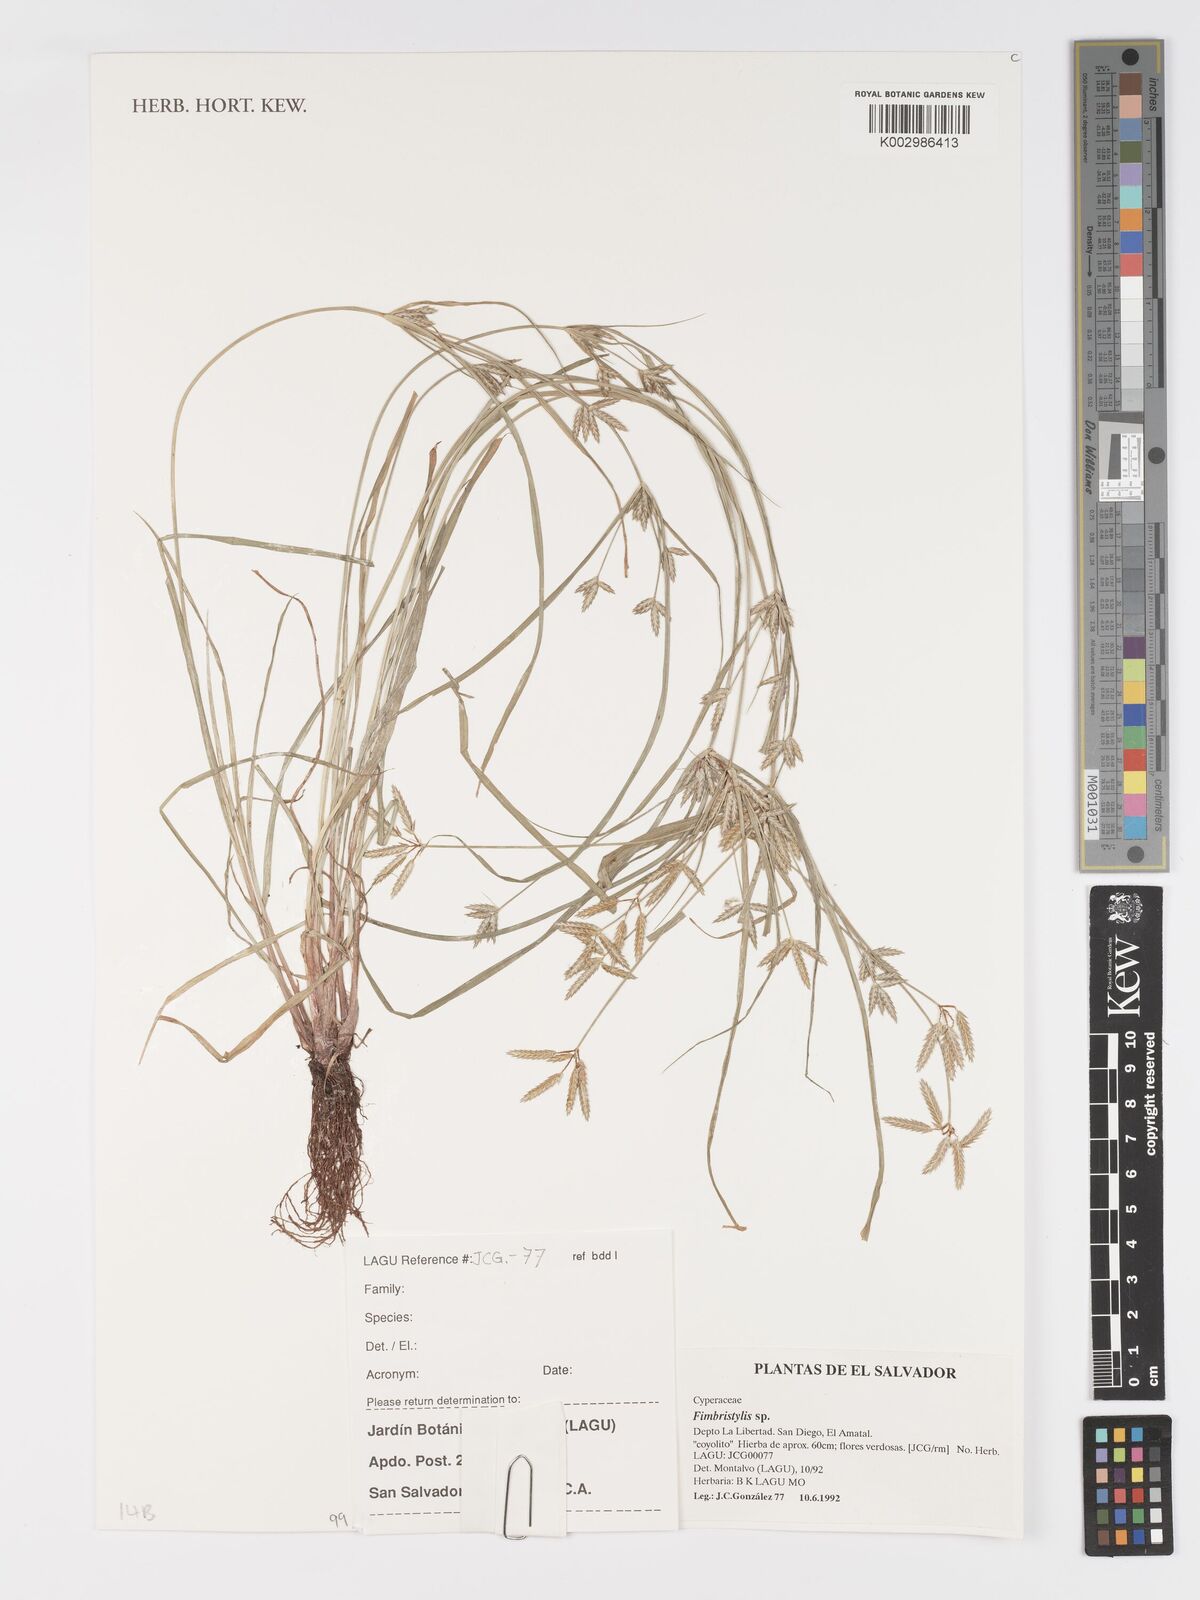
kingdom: Plantae
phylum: Tracheophyta
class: Liliopsida
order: Poales
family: Cyperaceae
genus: Fimbristylis
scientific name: Fimbristylis
